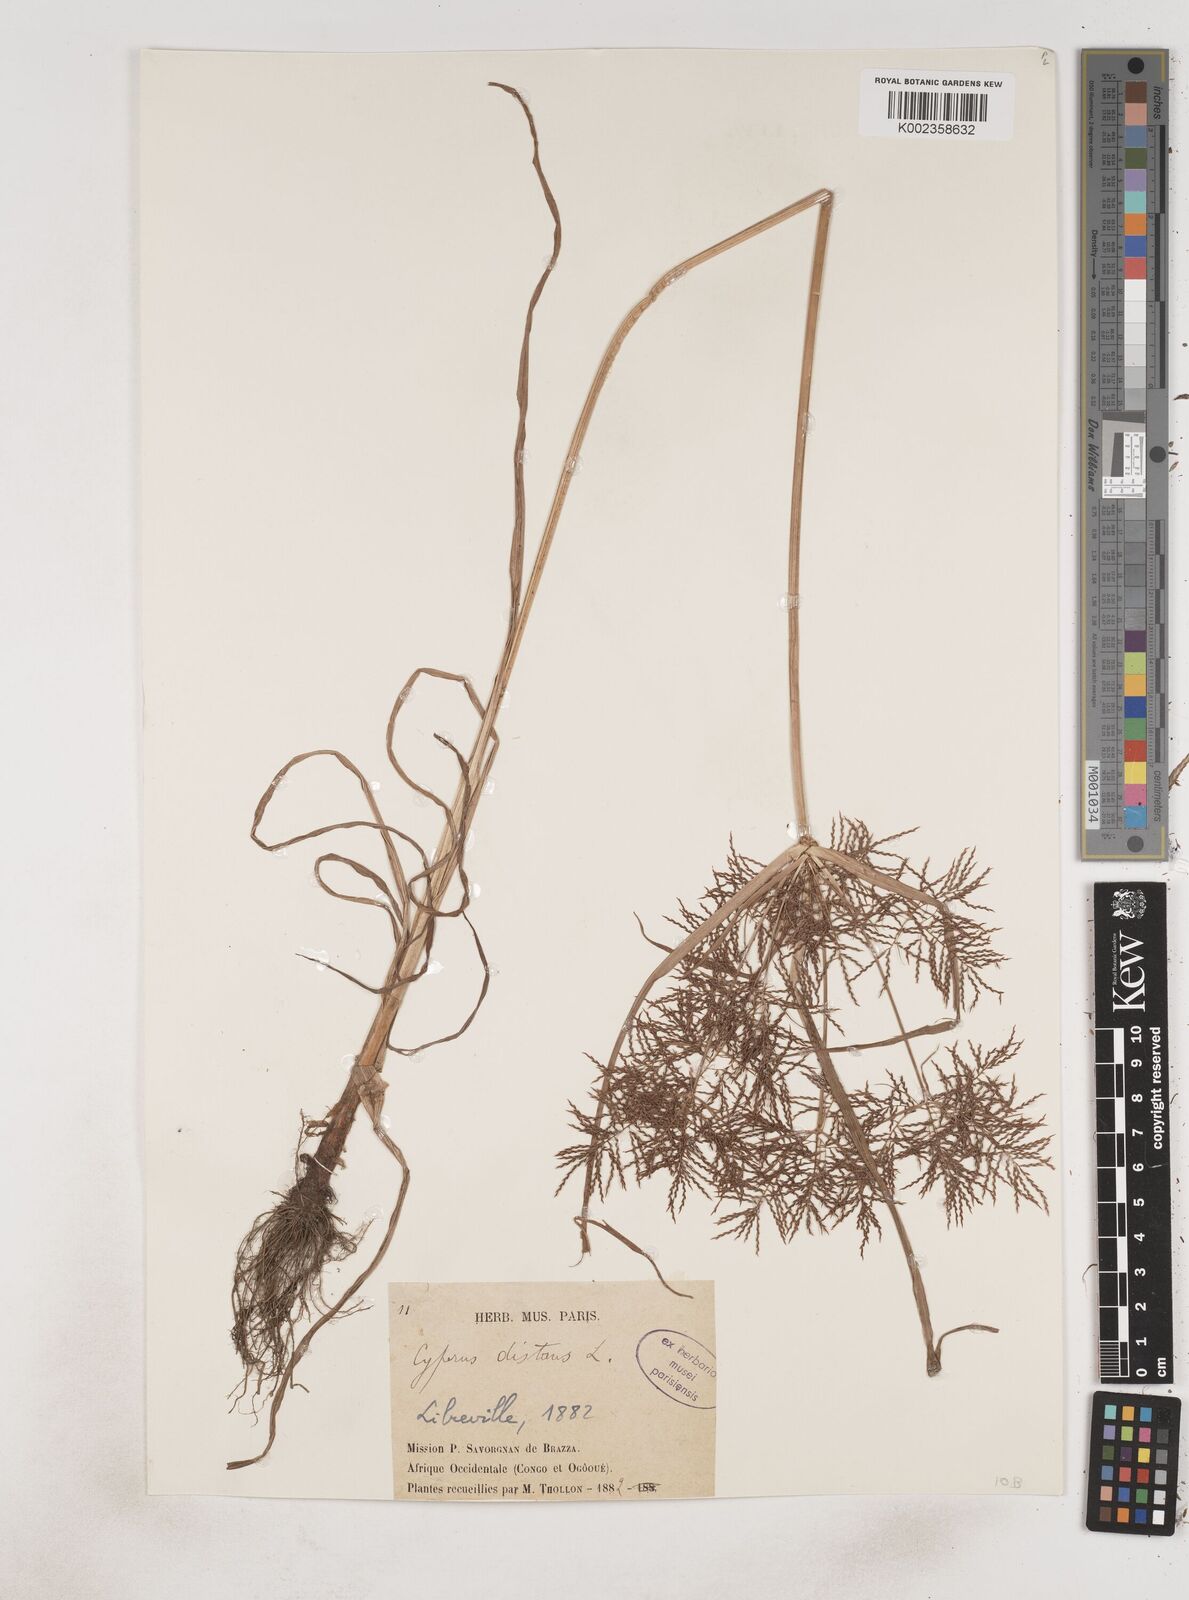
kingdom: Plantae
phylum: Tracheophyta
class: Liliopsida
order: Poales
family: Cyperaceae
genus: Cyperus
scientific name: Cyperus distans
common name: Slender cyperus
